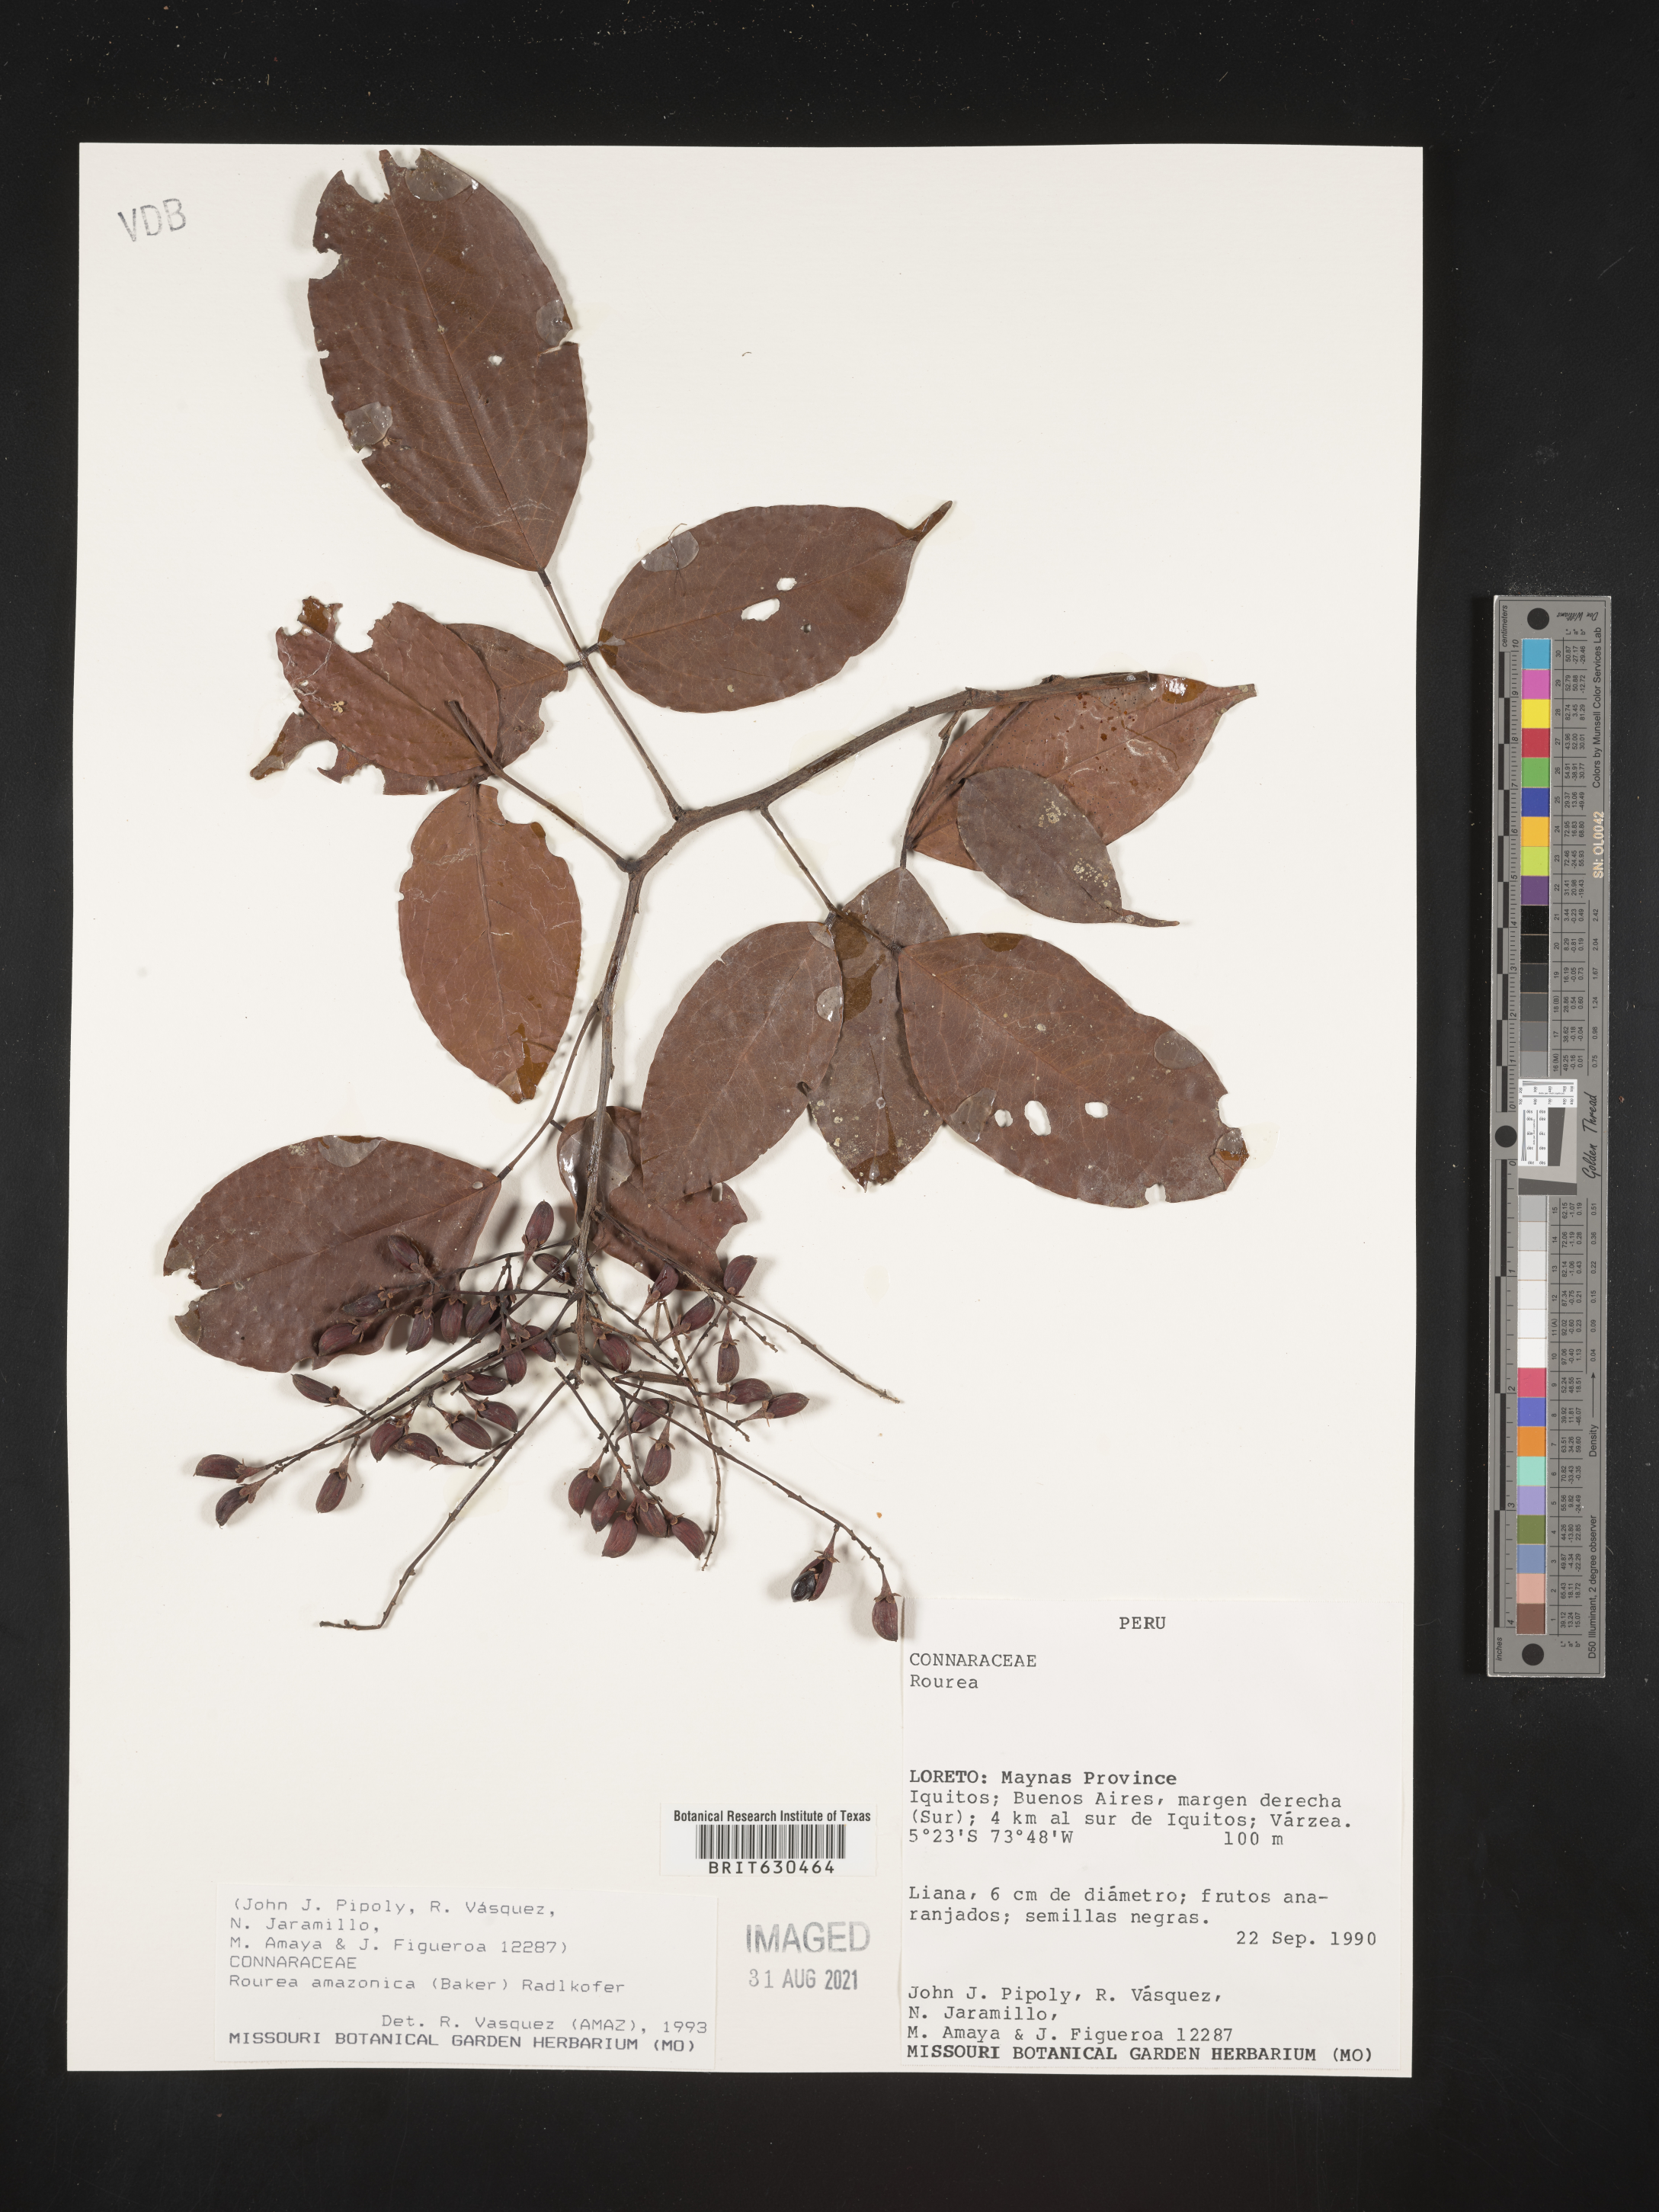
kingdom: Plantae
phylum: Tracheophyta
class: Magnoliopsida
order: Oxalidales
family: Connaraceae
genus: Rourea
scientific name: Rourea amazonica
